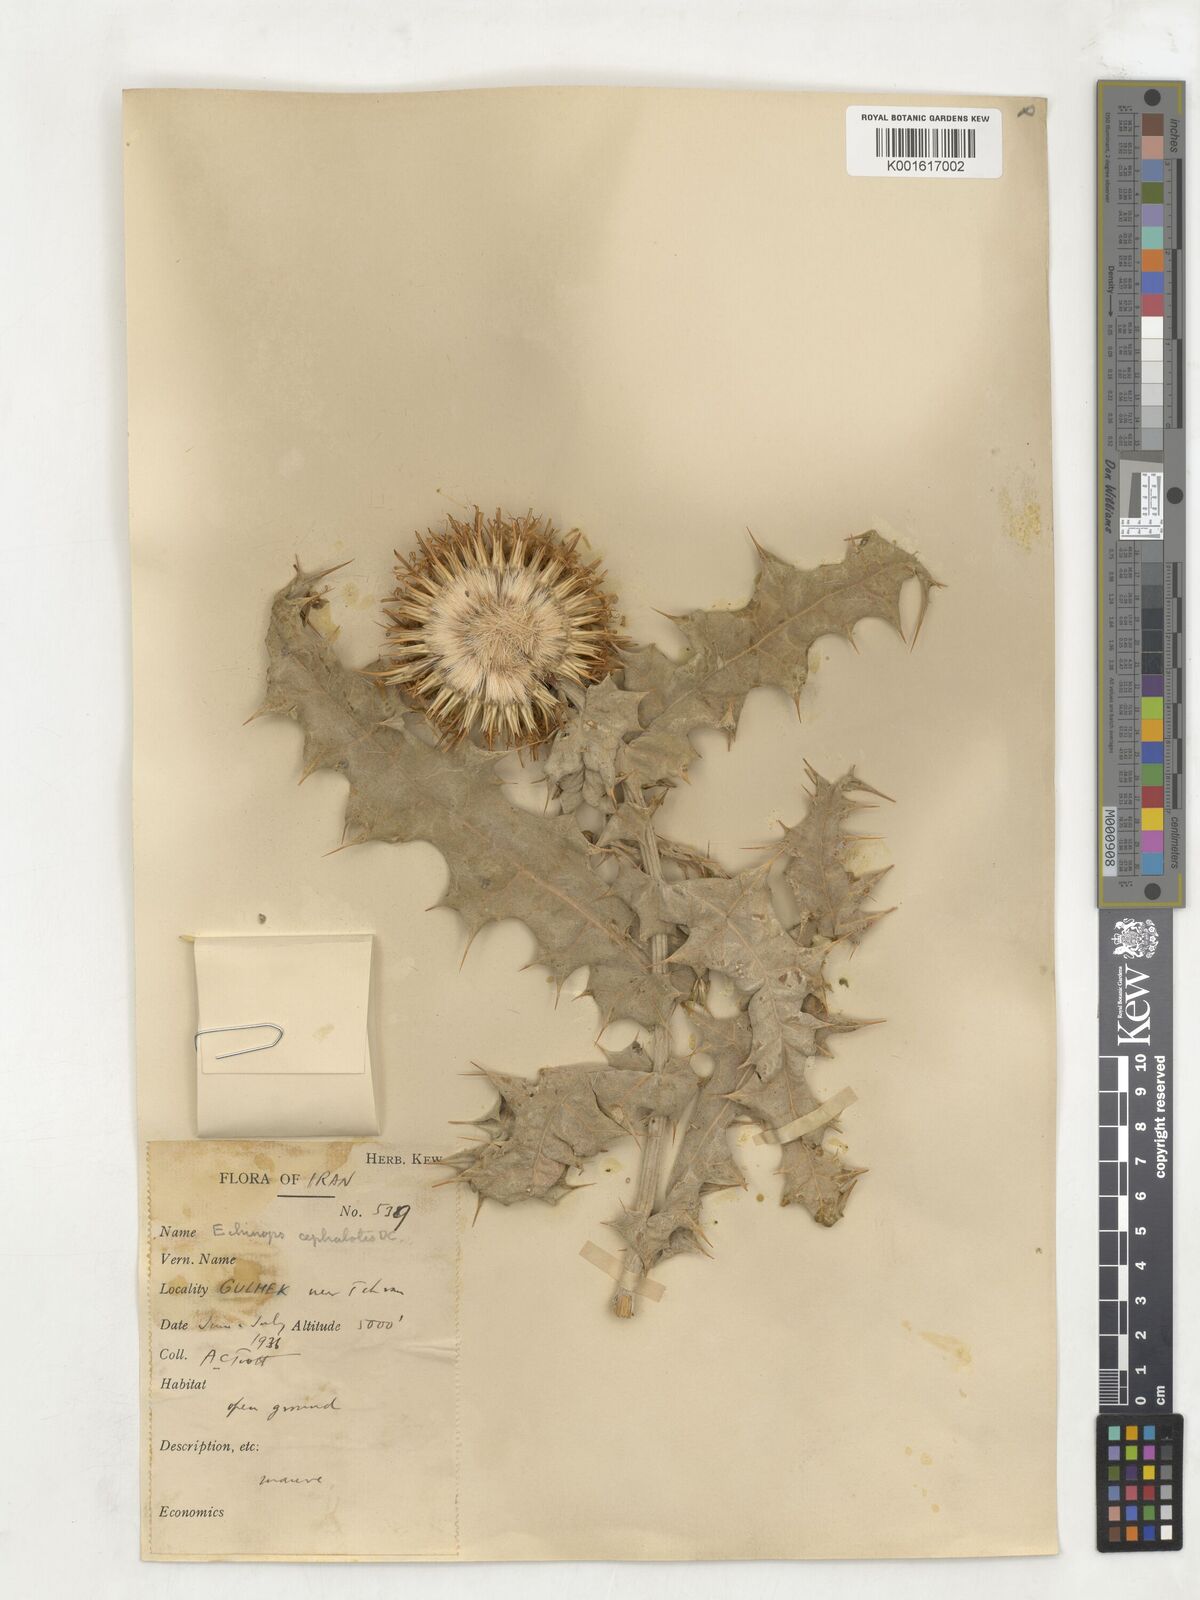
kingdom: Plantae
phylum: Tracheophyta
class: Magnoliopsida
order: Asterales
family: Asteraceae
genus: Echinops
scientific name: Echinops cephalotes
